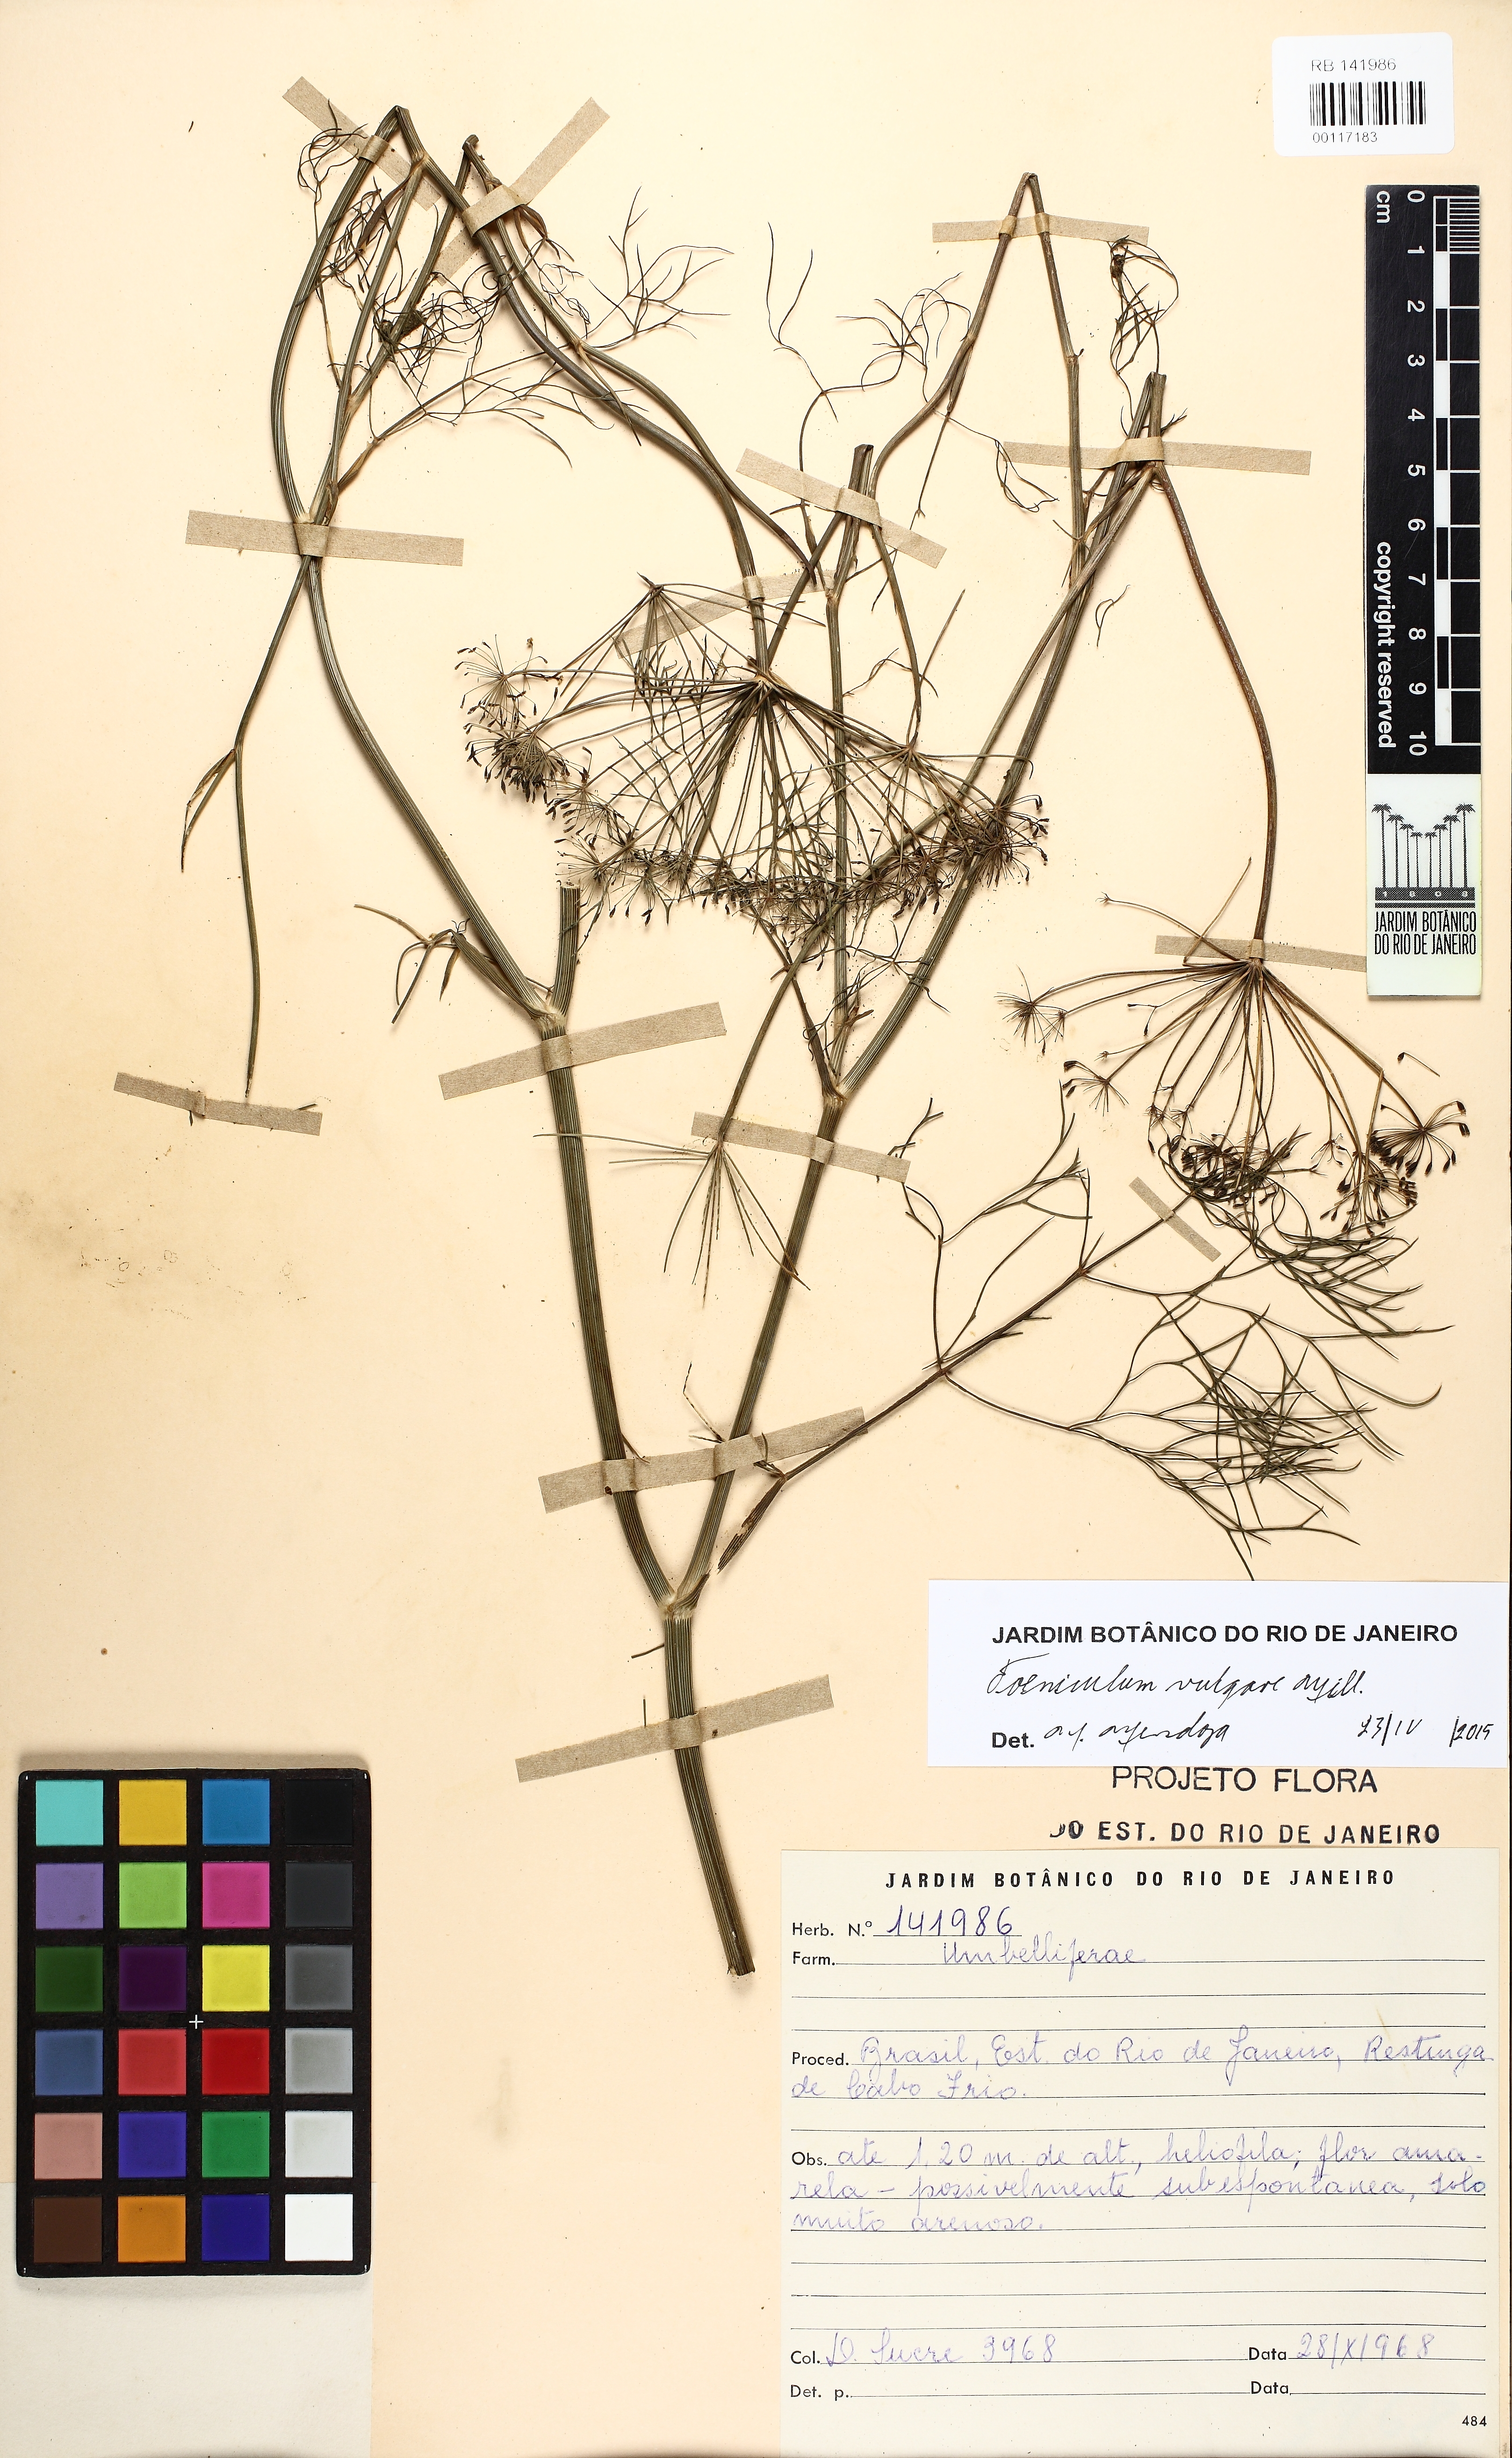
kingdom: Plantae
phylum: Tracheophyta
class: Magnoliopsida
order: Apiales
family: Apiaceae
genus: Foeniculum
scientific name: Foeniculum vulgare
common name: Fennel
